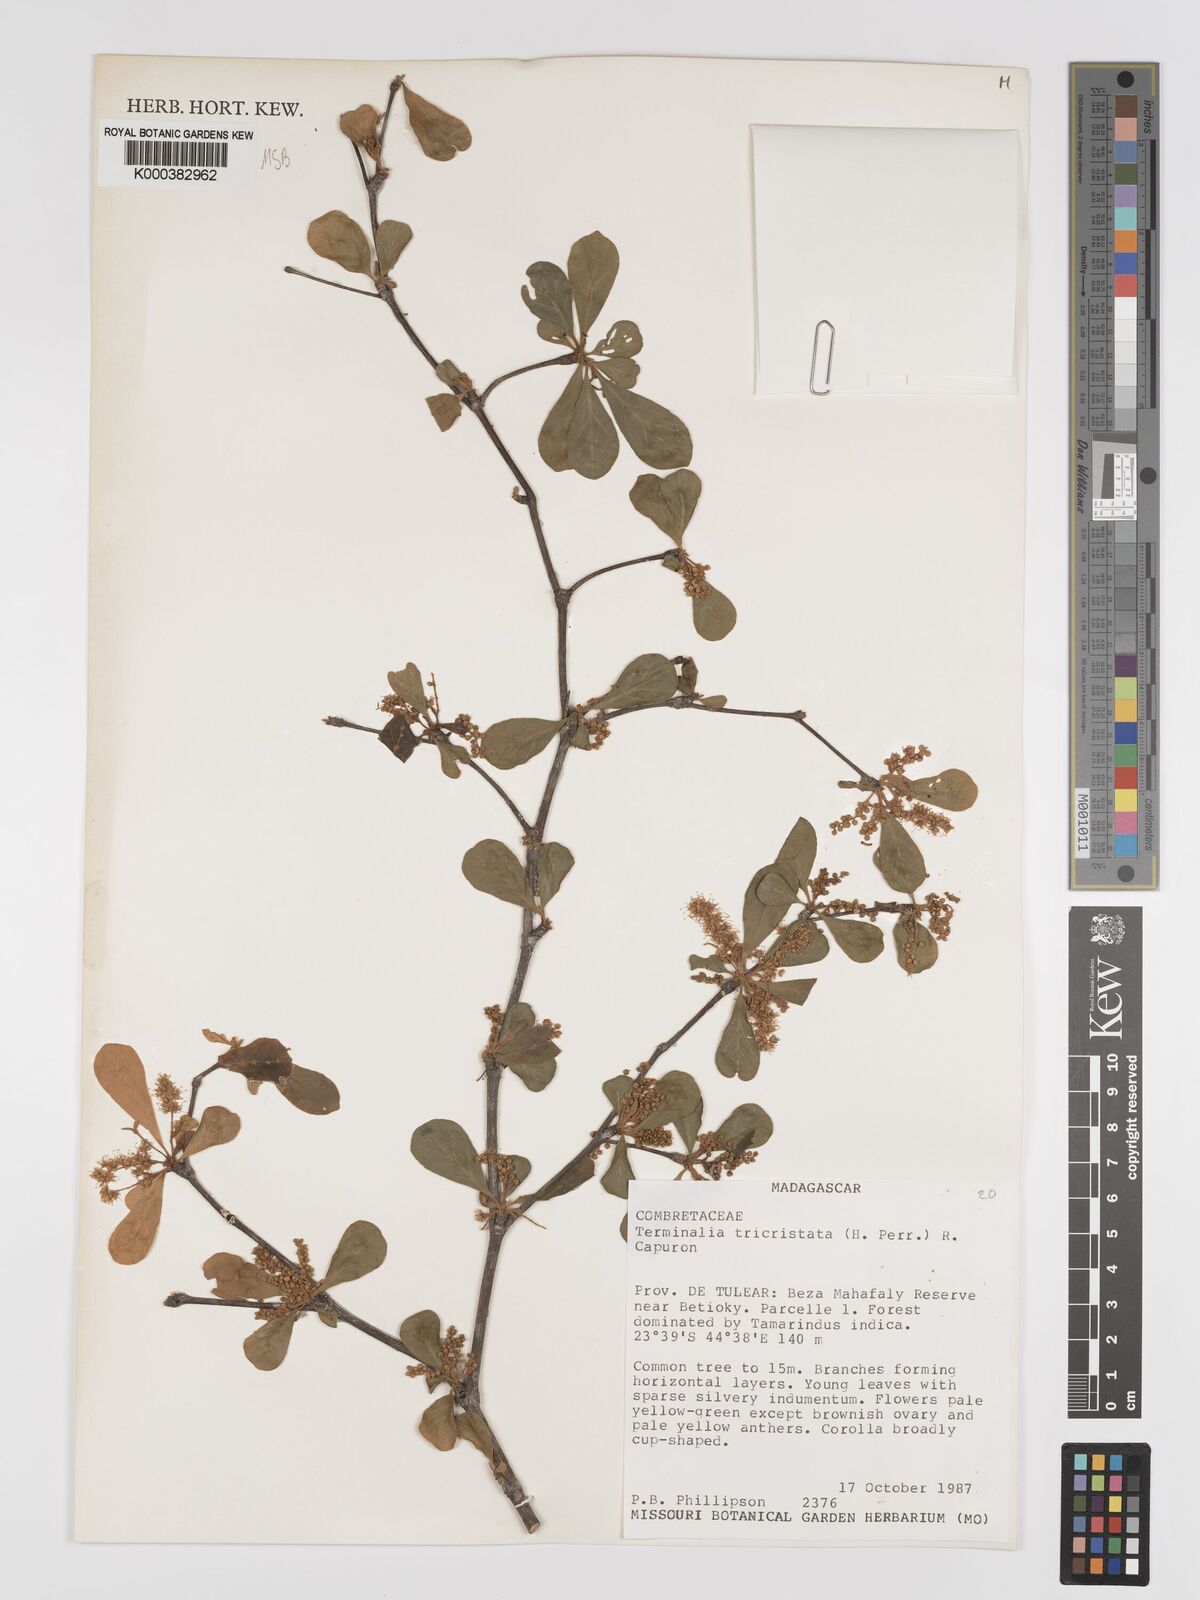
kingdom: Plantae
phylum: Tracheophyta
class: Magnoliopsida
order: Myrtales
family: Combretaceae
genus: Terminalia
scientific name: Terminalia
